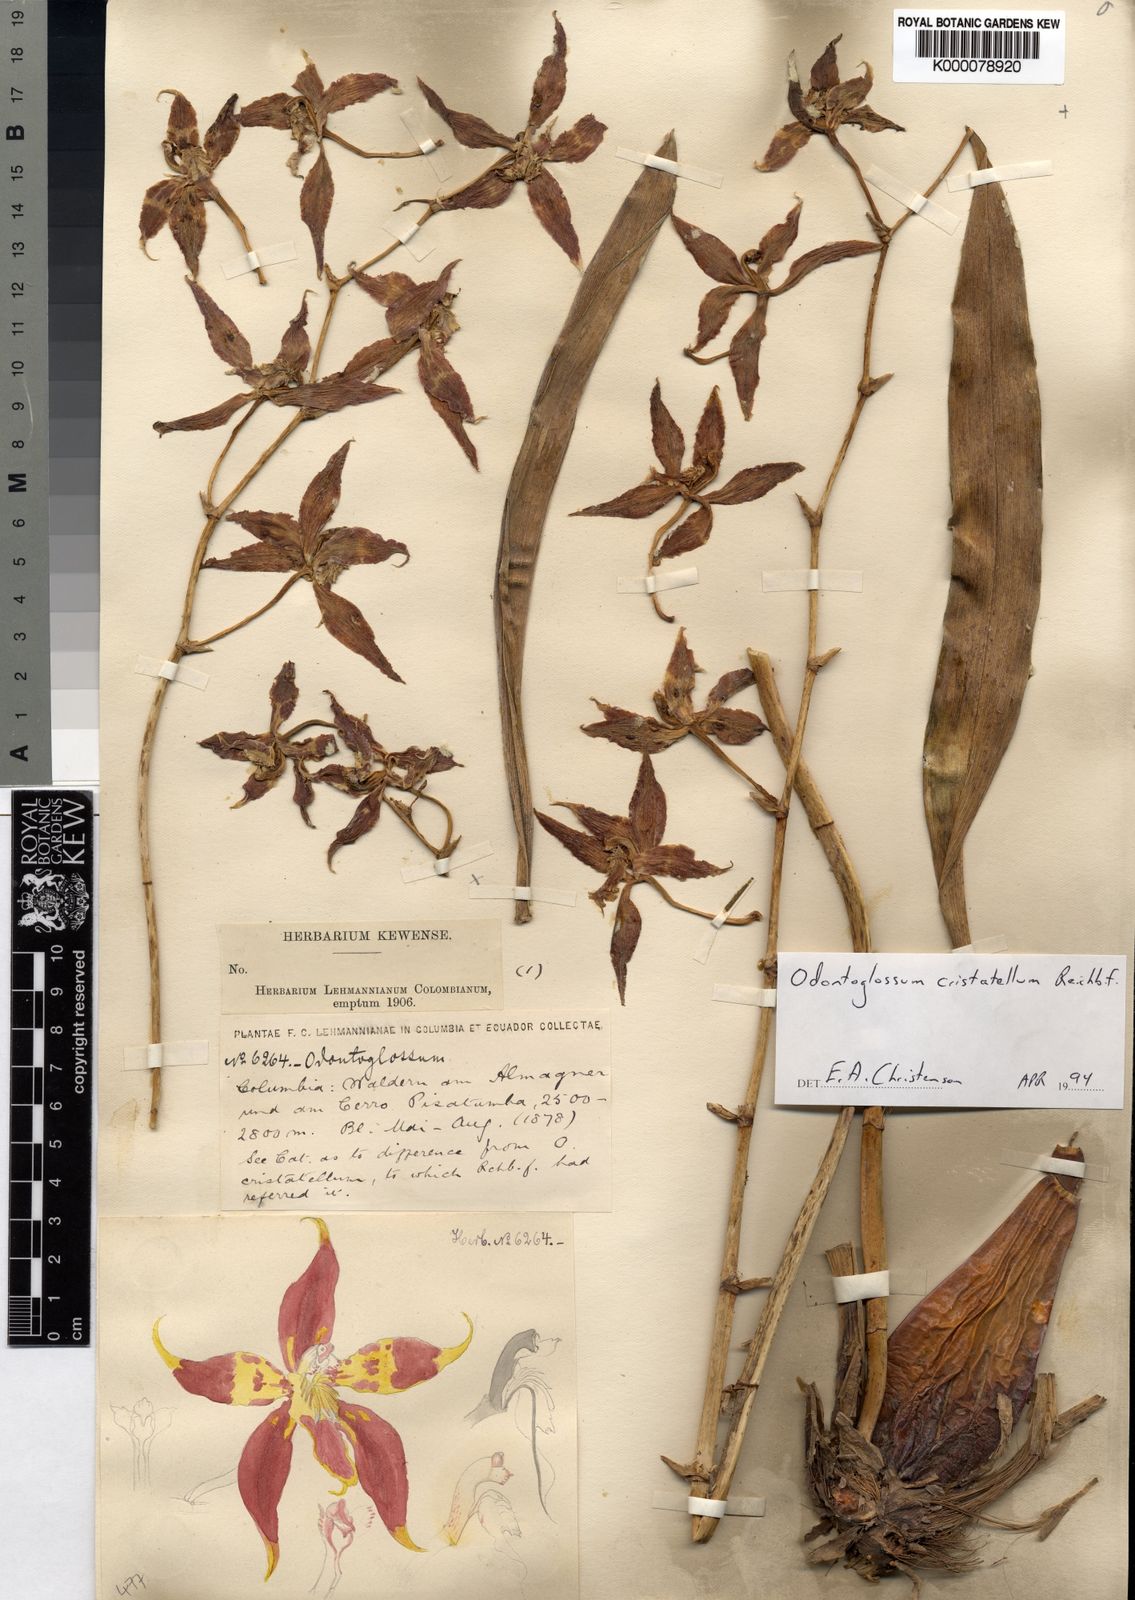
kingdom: Plantae
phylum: Tracheophyta
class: Liliopsida
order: Asparagales
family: Orchidaceae
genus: Oncidium
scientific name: Oncidium lehmannii
